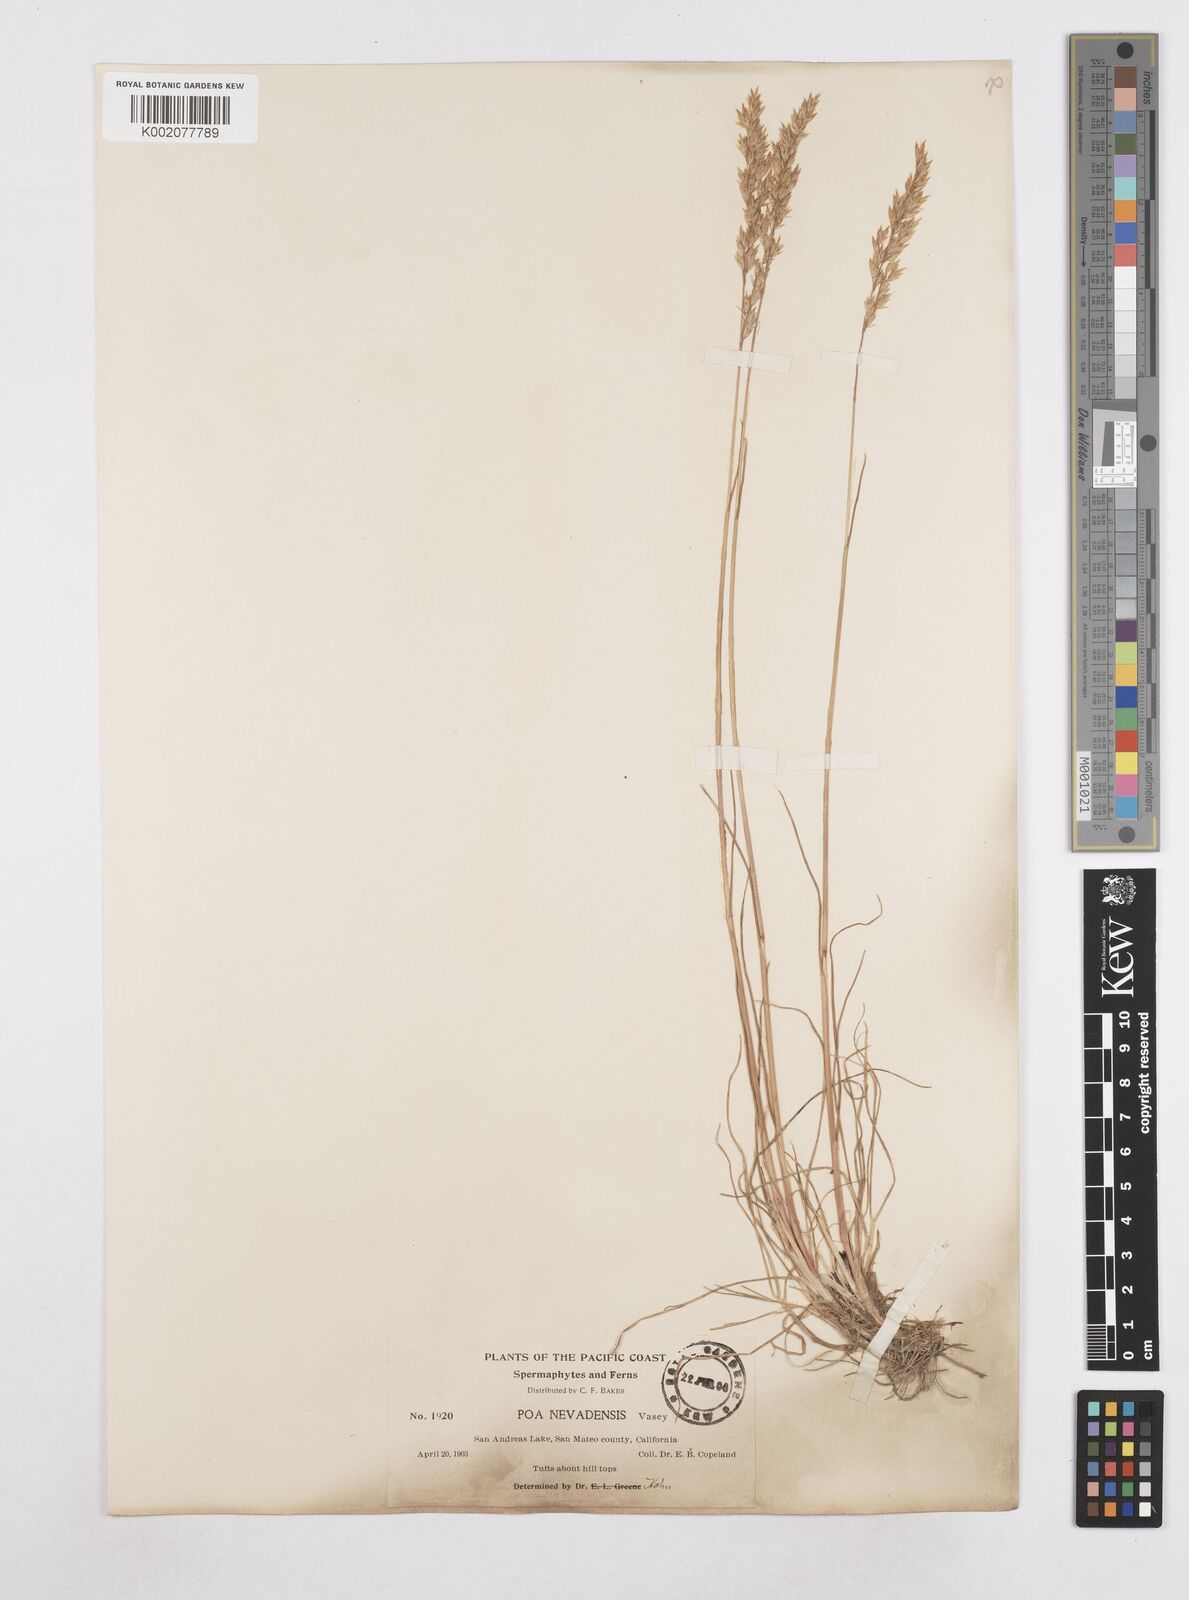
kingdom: Plantae
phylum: Tracheophyta
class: Liliopsida
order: Poales
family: Poaceae
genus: Poa
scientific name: Poa secunda
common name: Sandberg bluegrass
